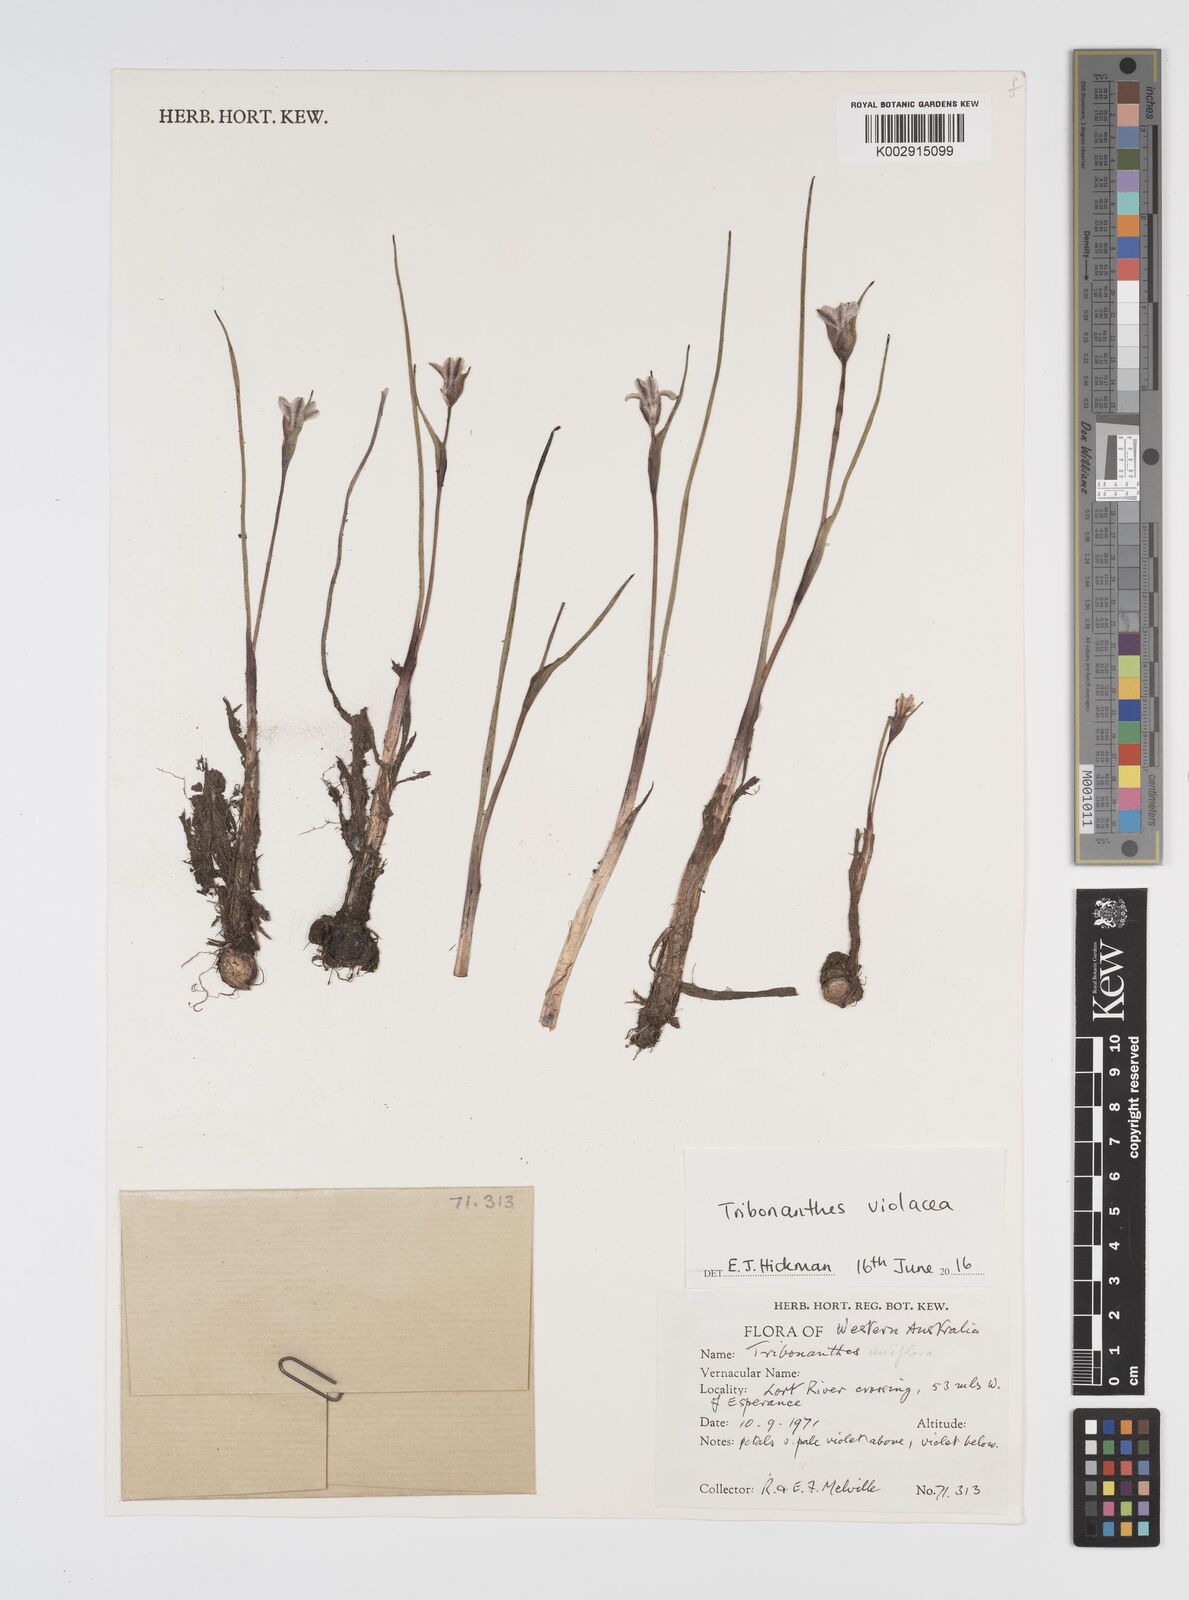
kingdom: Plantae
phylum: Tracheophyta
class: Liliopsida
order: Commelinales
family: Haemodoraceae
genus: Tribonanthes
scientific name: Tribonanthes uniflora
